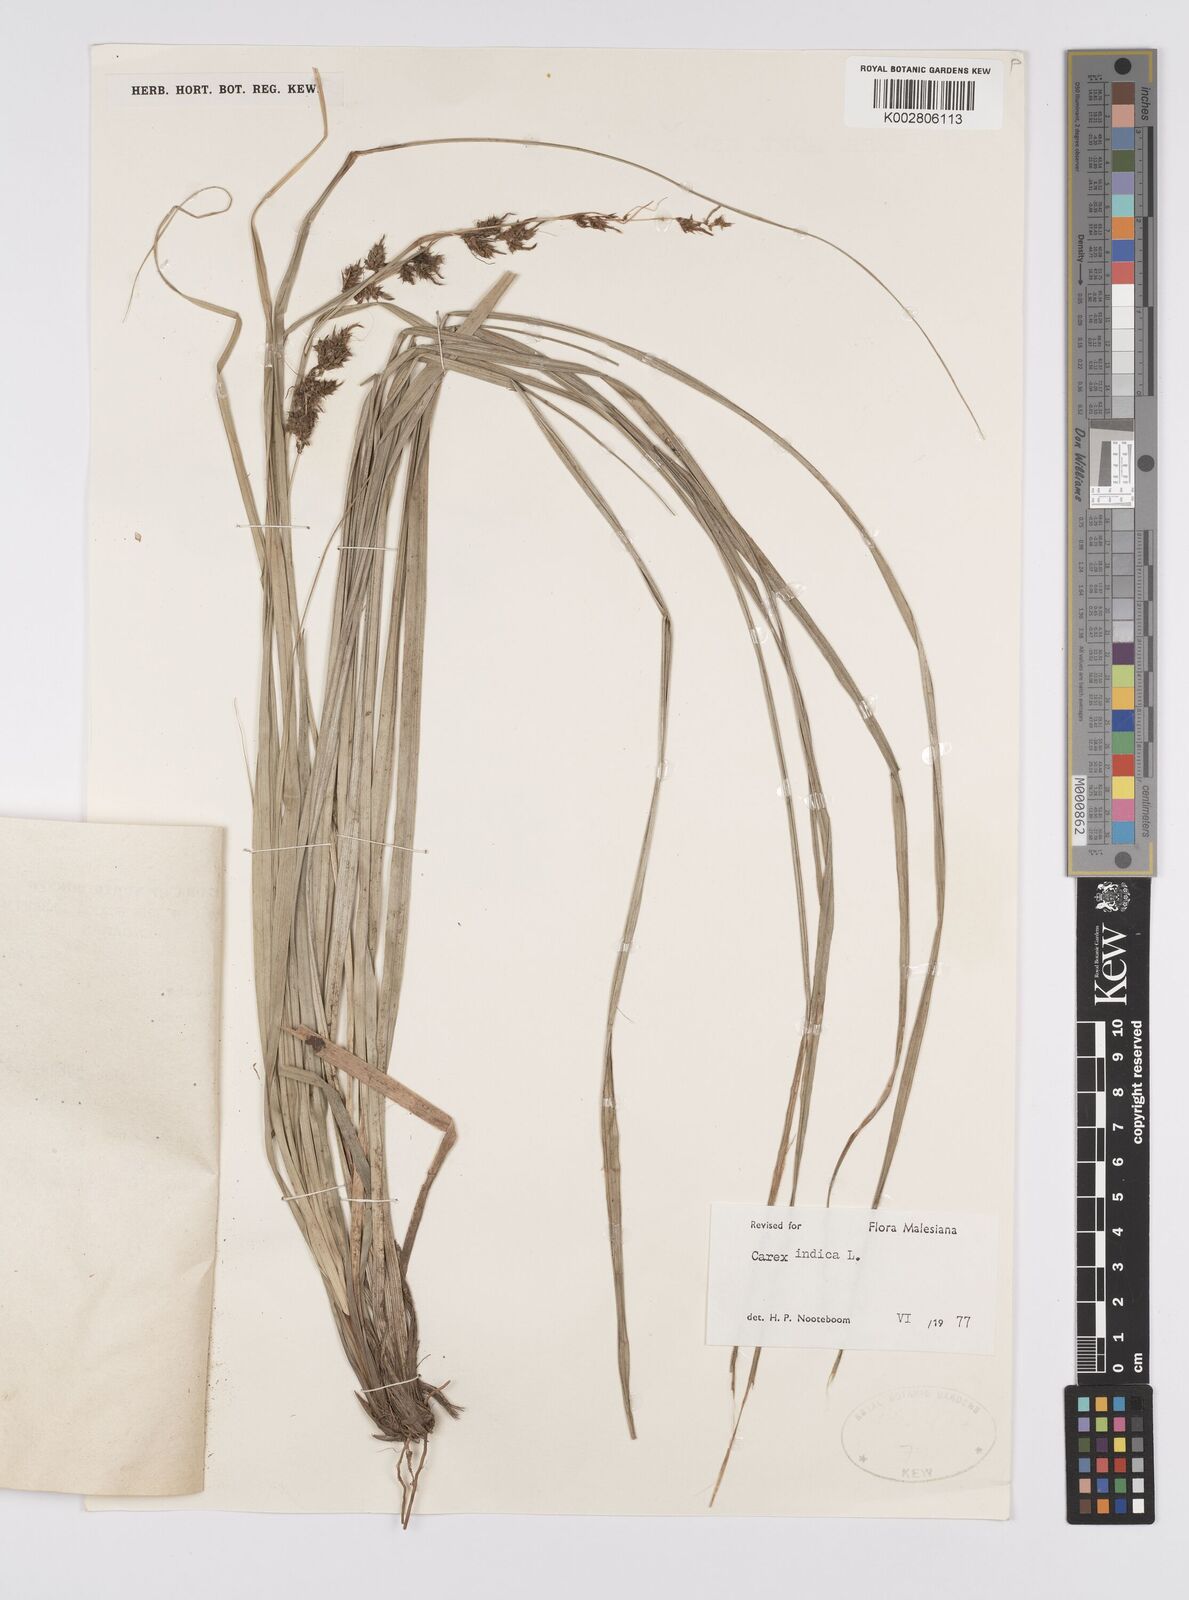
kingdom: Plantae
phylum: Tracheophyta
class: Liliopsida
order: Poales
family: Cyperaceae
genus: Carex
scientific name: Carex indica
